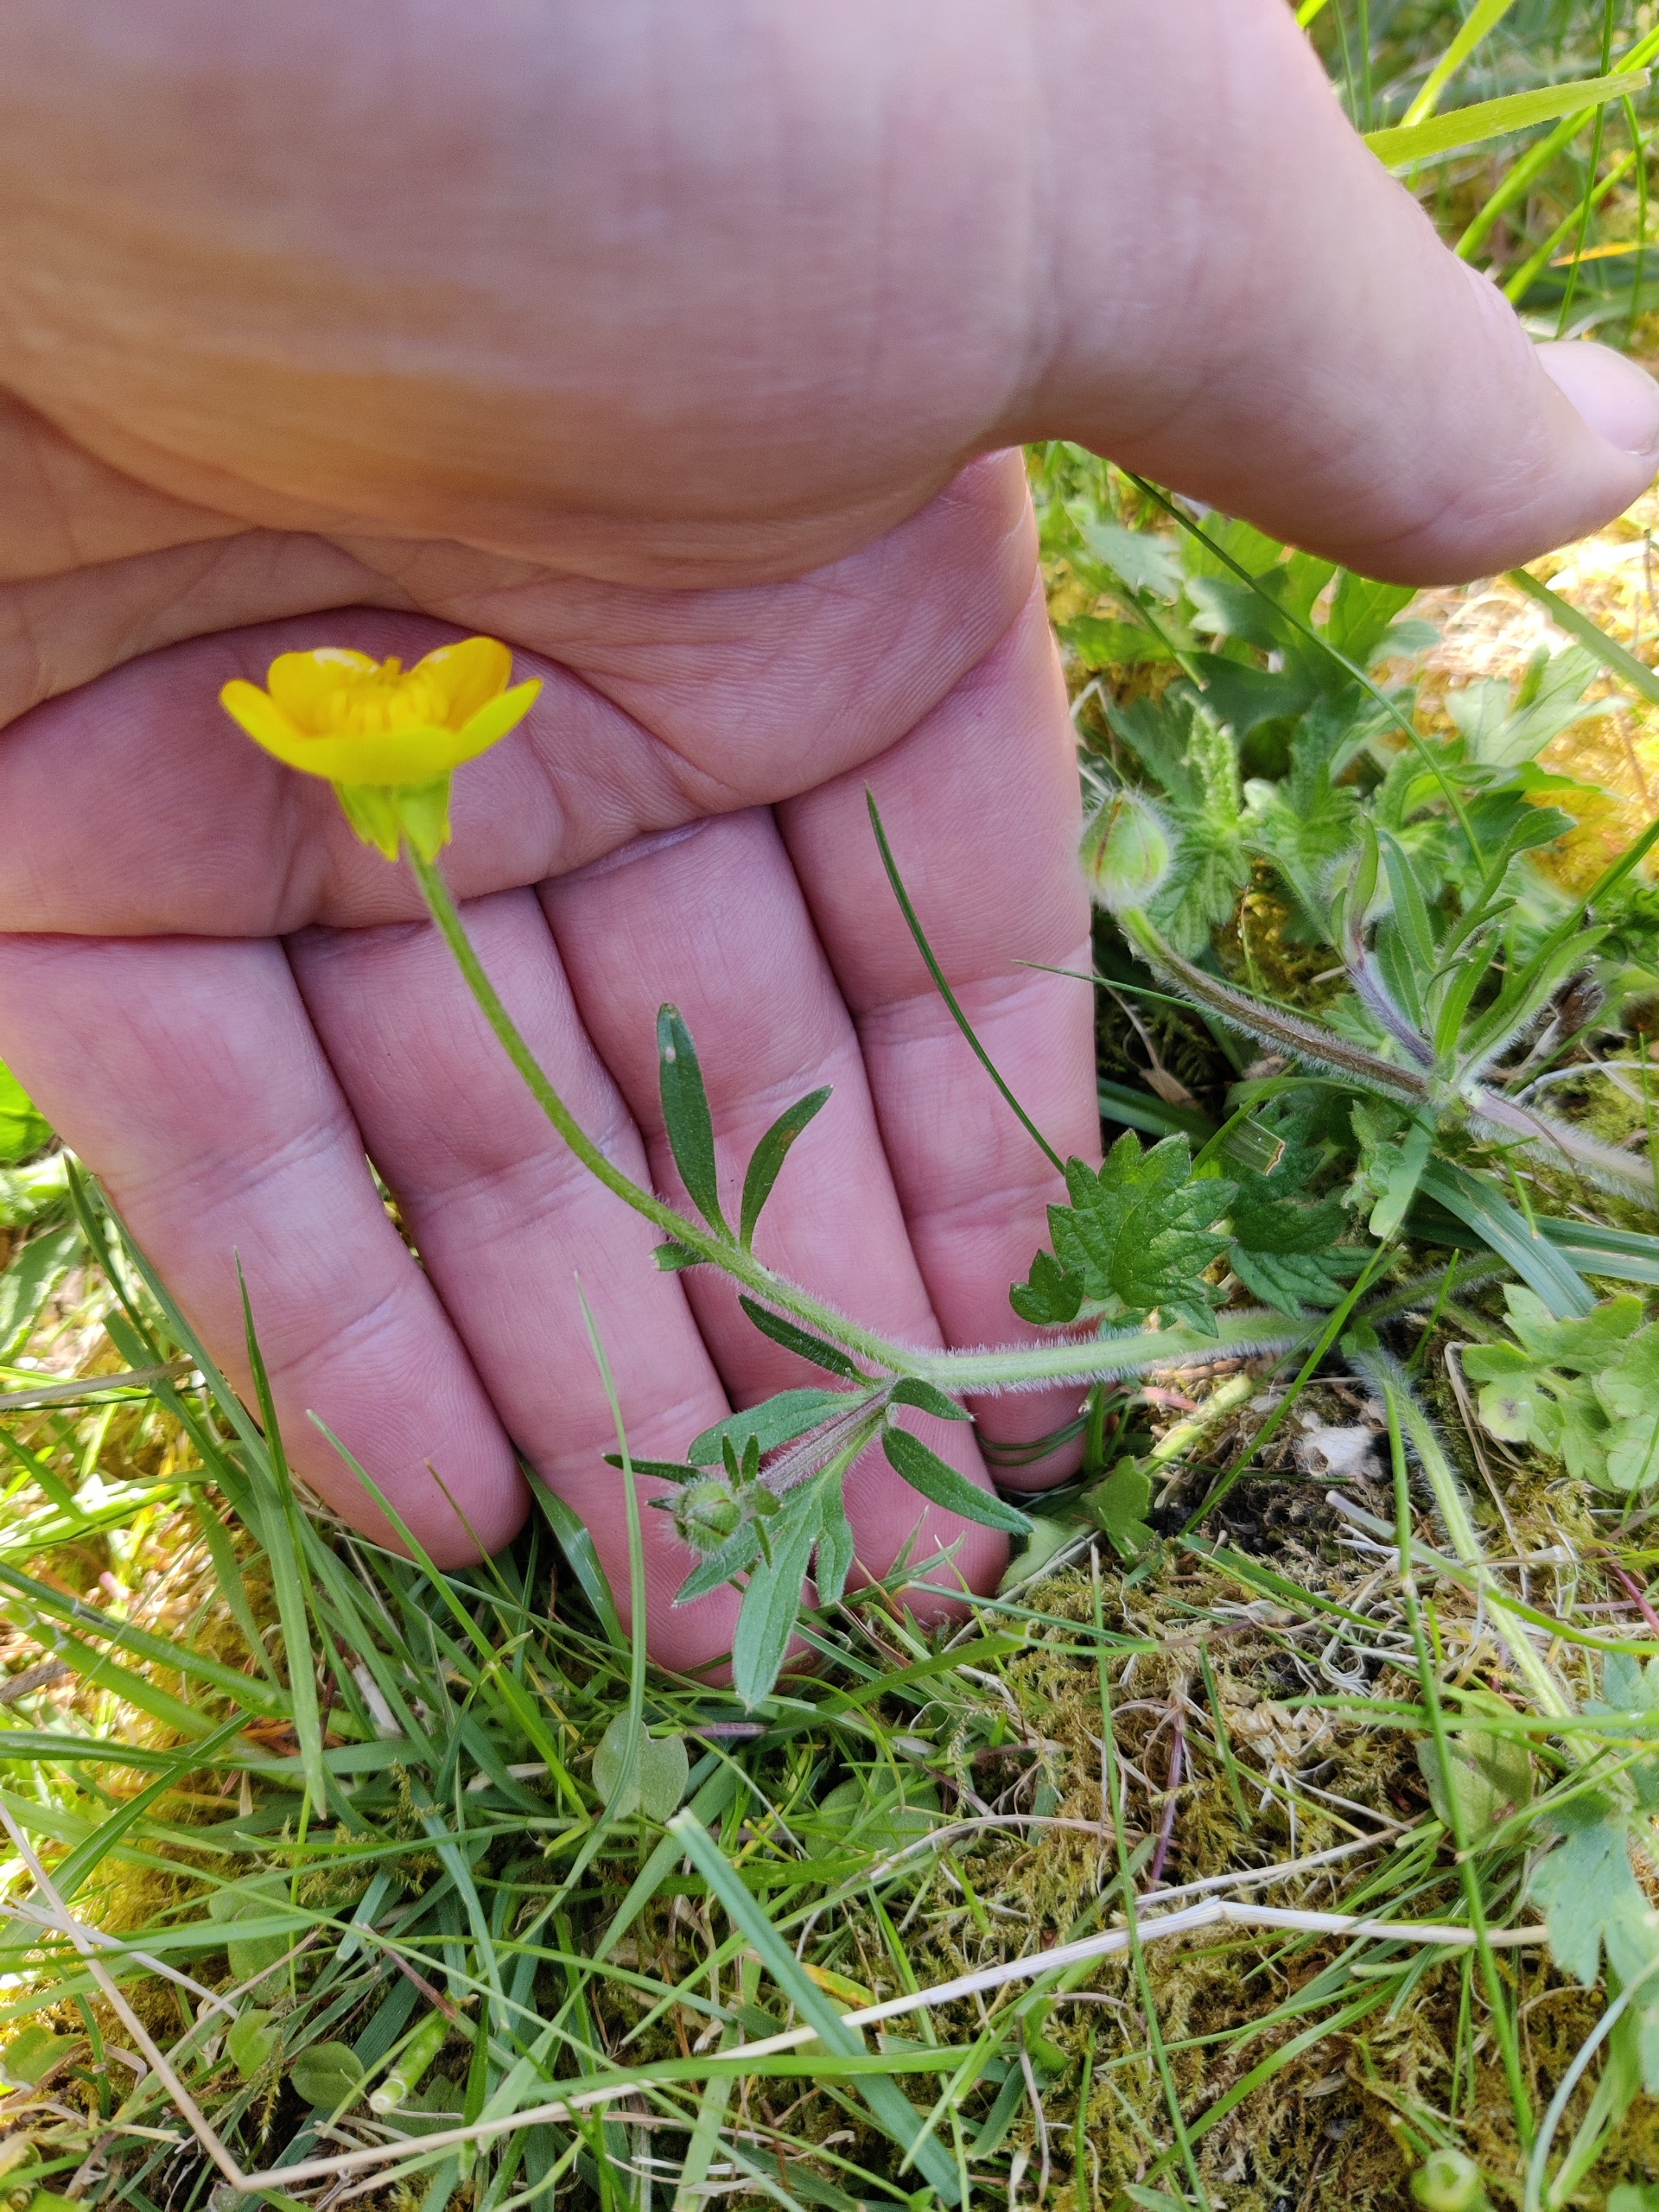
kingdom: Plantae
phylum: Tracheophyta
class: Magnoliopsida
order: Ranunculales
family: Ranunculaceae
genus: Ranunculus
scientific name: Ranunculus bulbosus
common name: Knold-ranunkel
